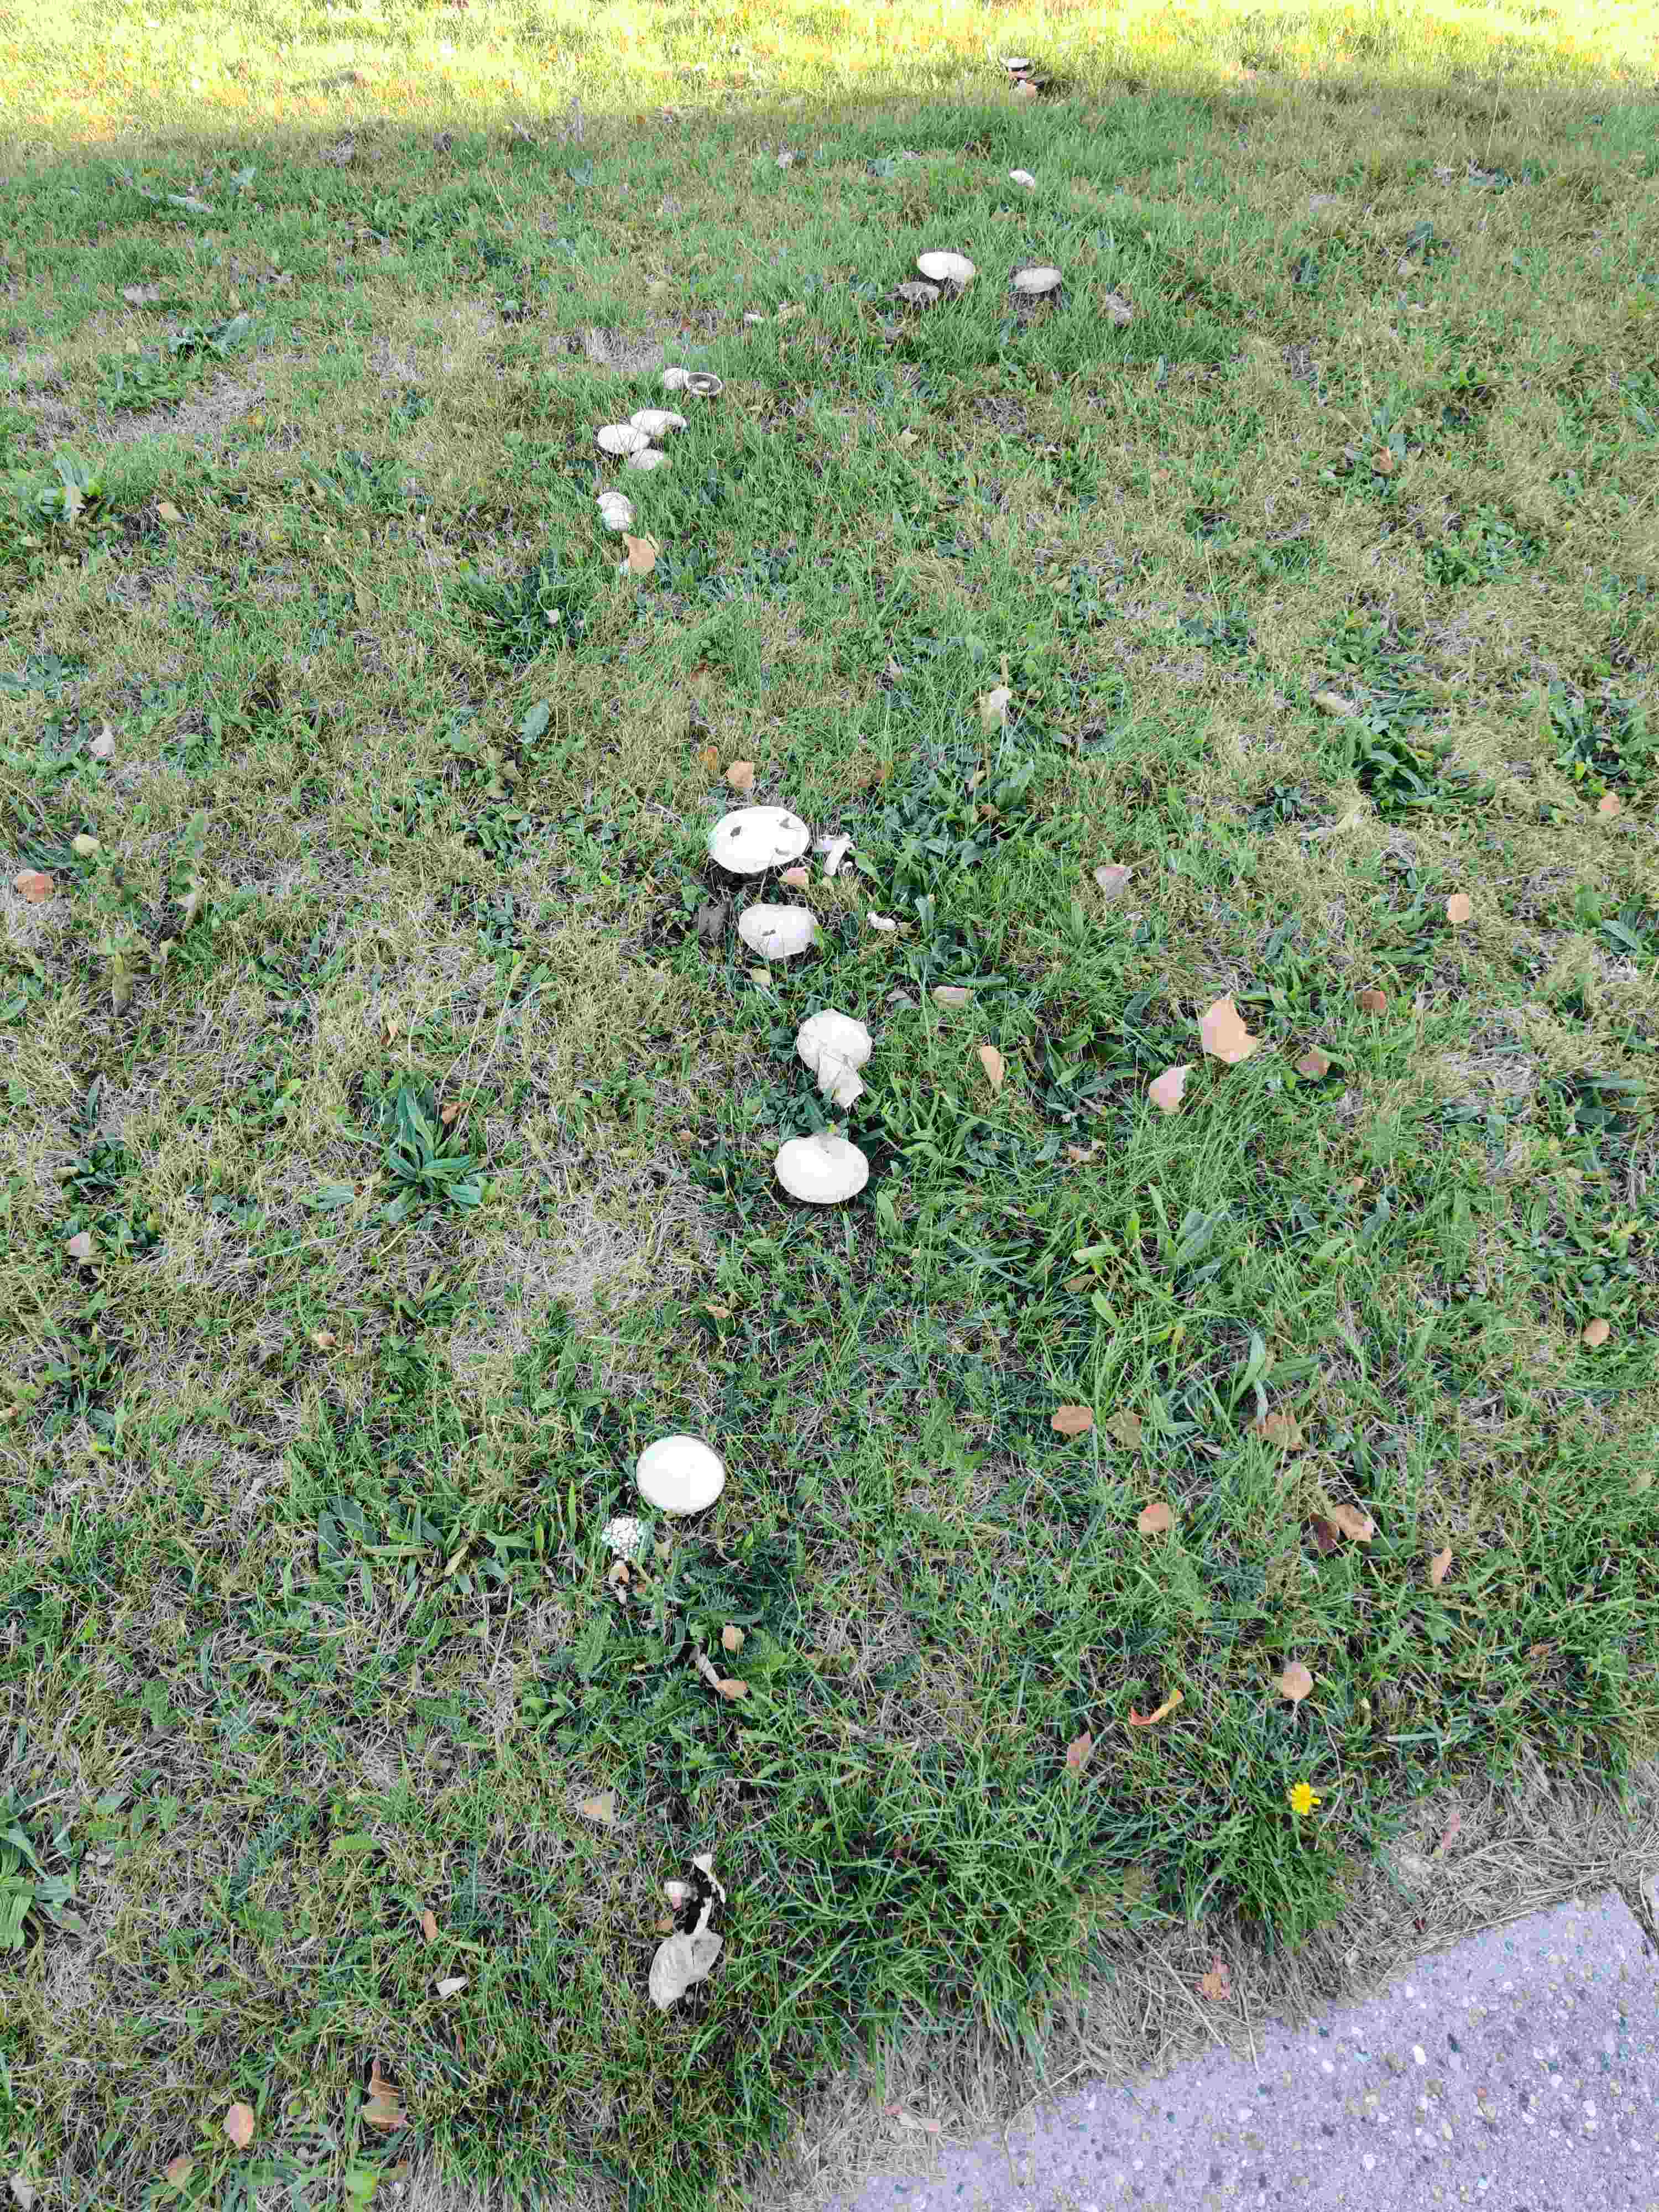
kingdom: Fungi
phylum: Basidiomycota
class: Agaricomycetes
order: Agaricales
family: Agaricaceae
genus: Agaricus
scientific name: Agaricus
